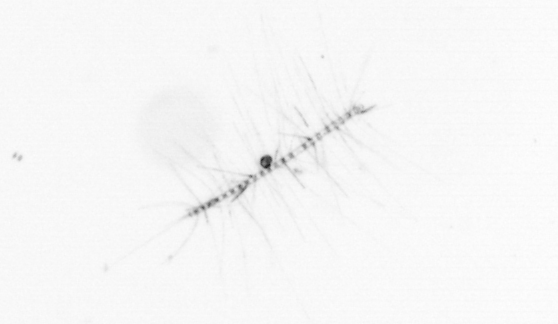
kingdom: Chromista
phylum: Ochrophyta
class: Bacillariophyceae
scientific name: Bacillariophyceae
